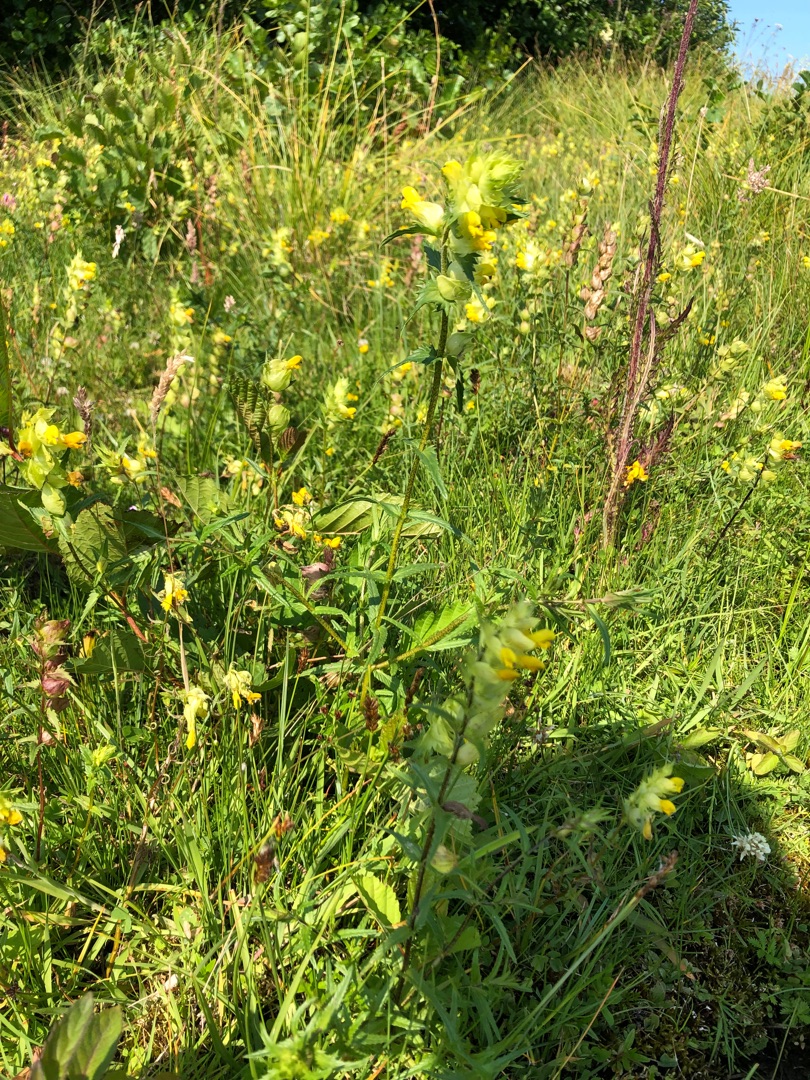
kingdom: Plantae
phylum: Tracheophyta
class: Magnoliopsida
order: Lamiales
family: Orobanchaceae
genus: Rhinanthus
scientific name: Rhinanthus
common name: Stor skjaller
